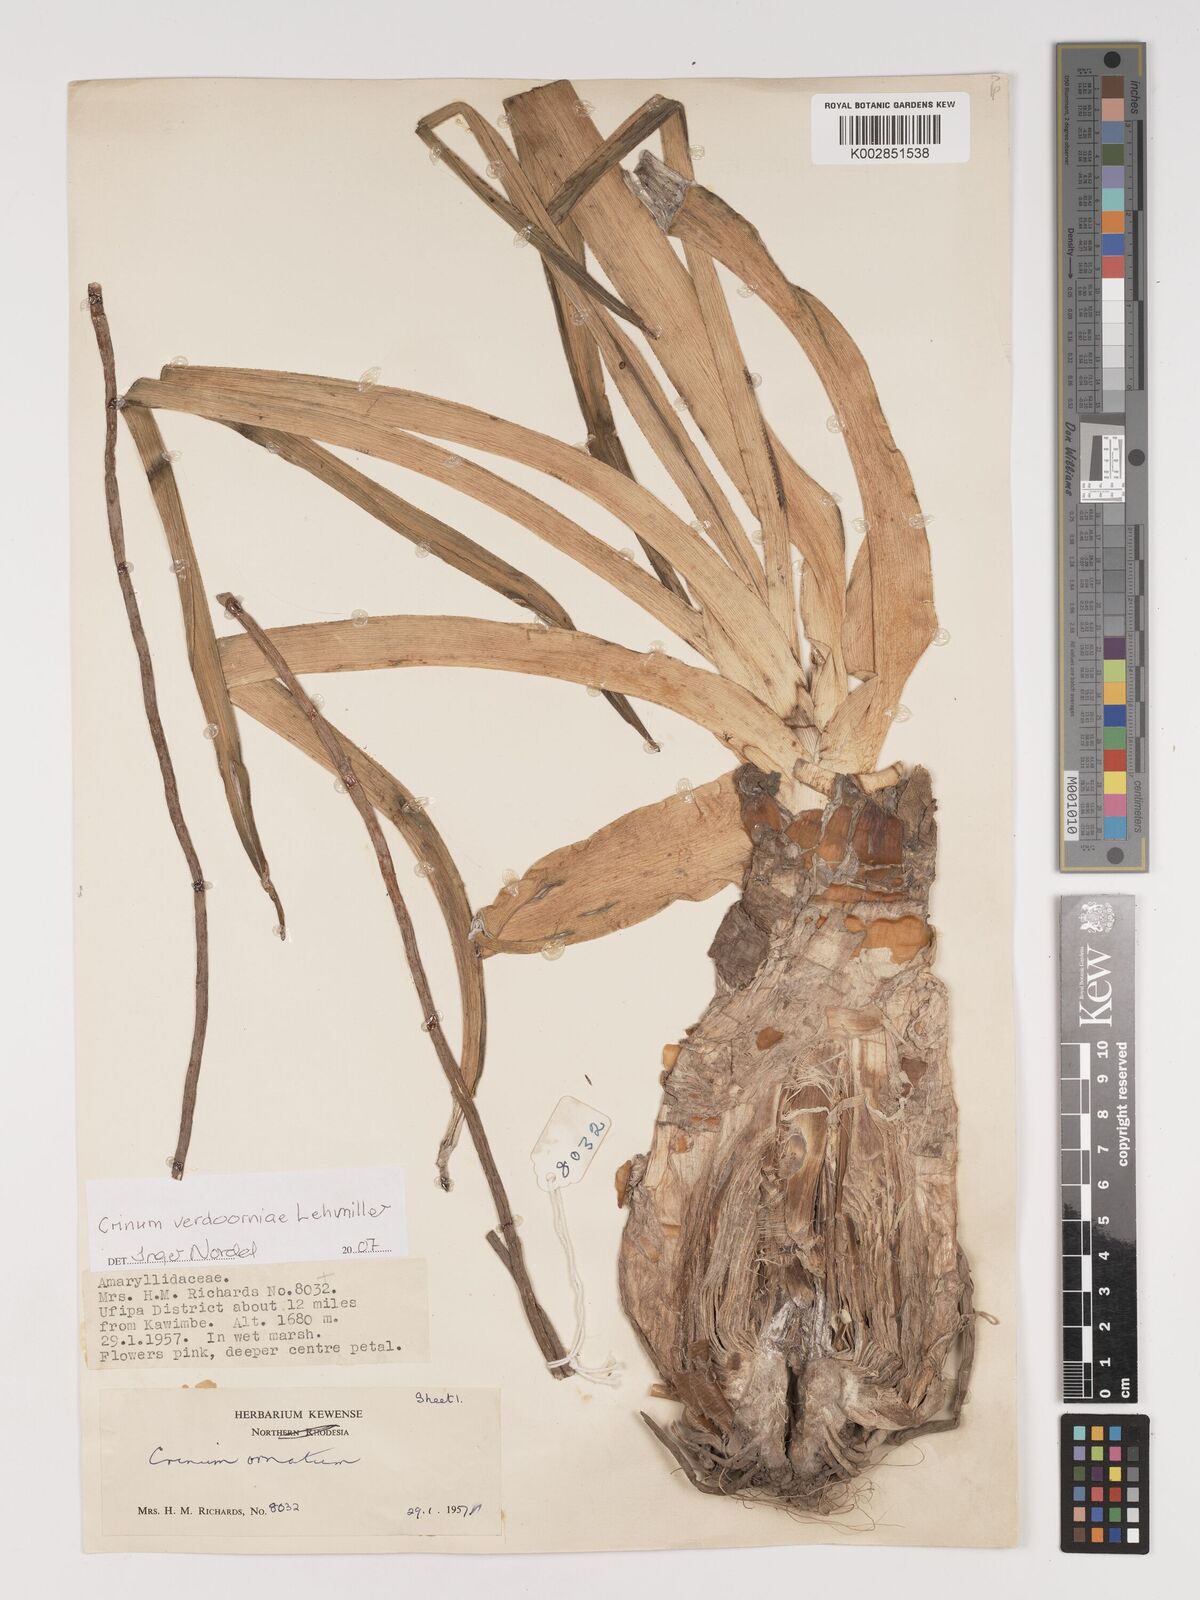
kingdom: Plantae
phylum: Tracheophyta
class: Liliopsida
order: Asparagales
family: Amaryllidaceae
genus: Crinum
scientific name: Crinum verdoorniae
